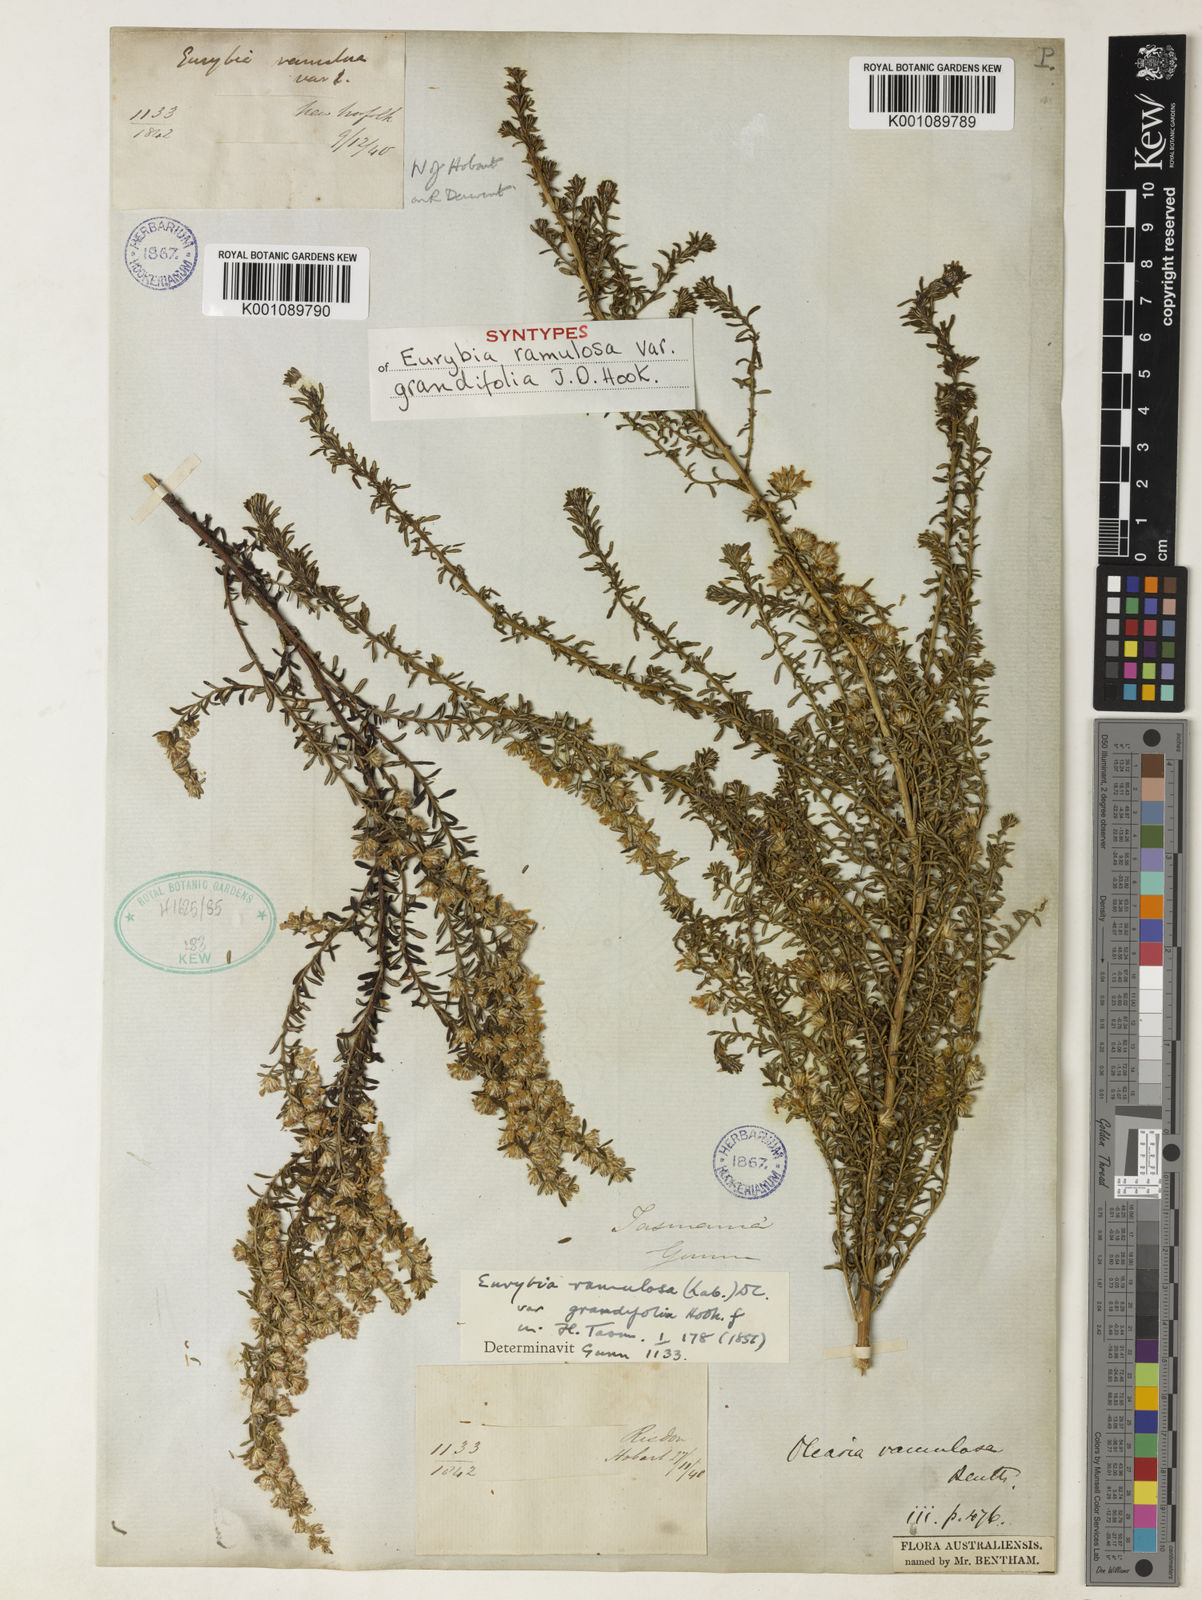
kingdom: Plantae
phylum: Tracheophyta
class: Magnoliopsida
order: Asterales
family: Asteraceae
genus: Olearia
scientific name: Olearia ramulosa
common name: Twiggy daisybush
